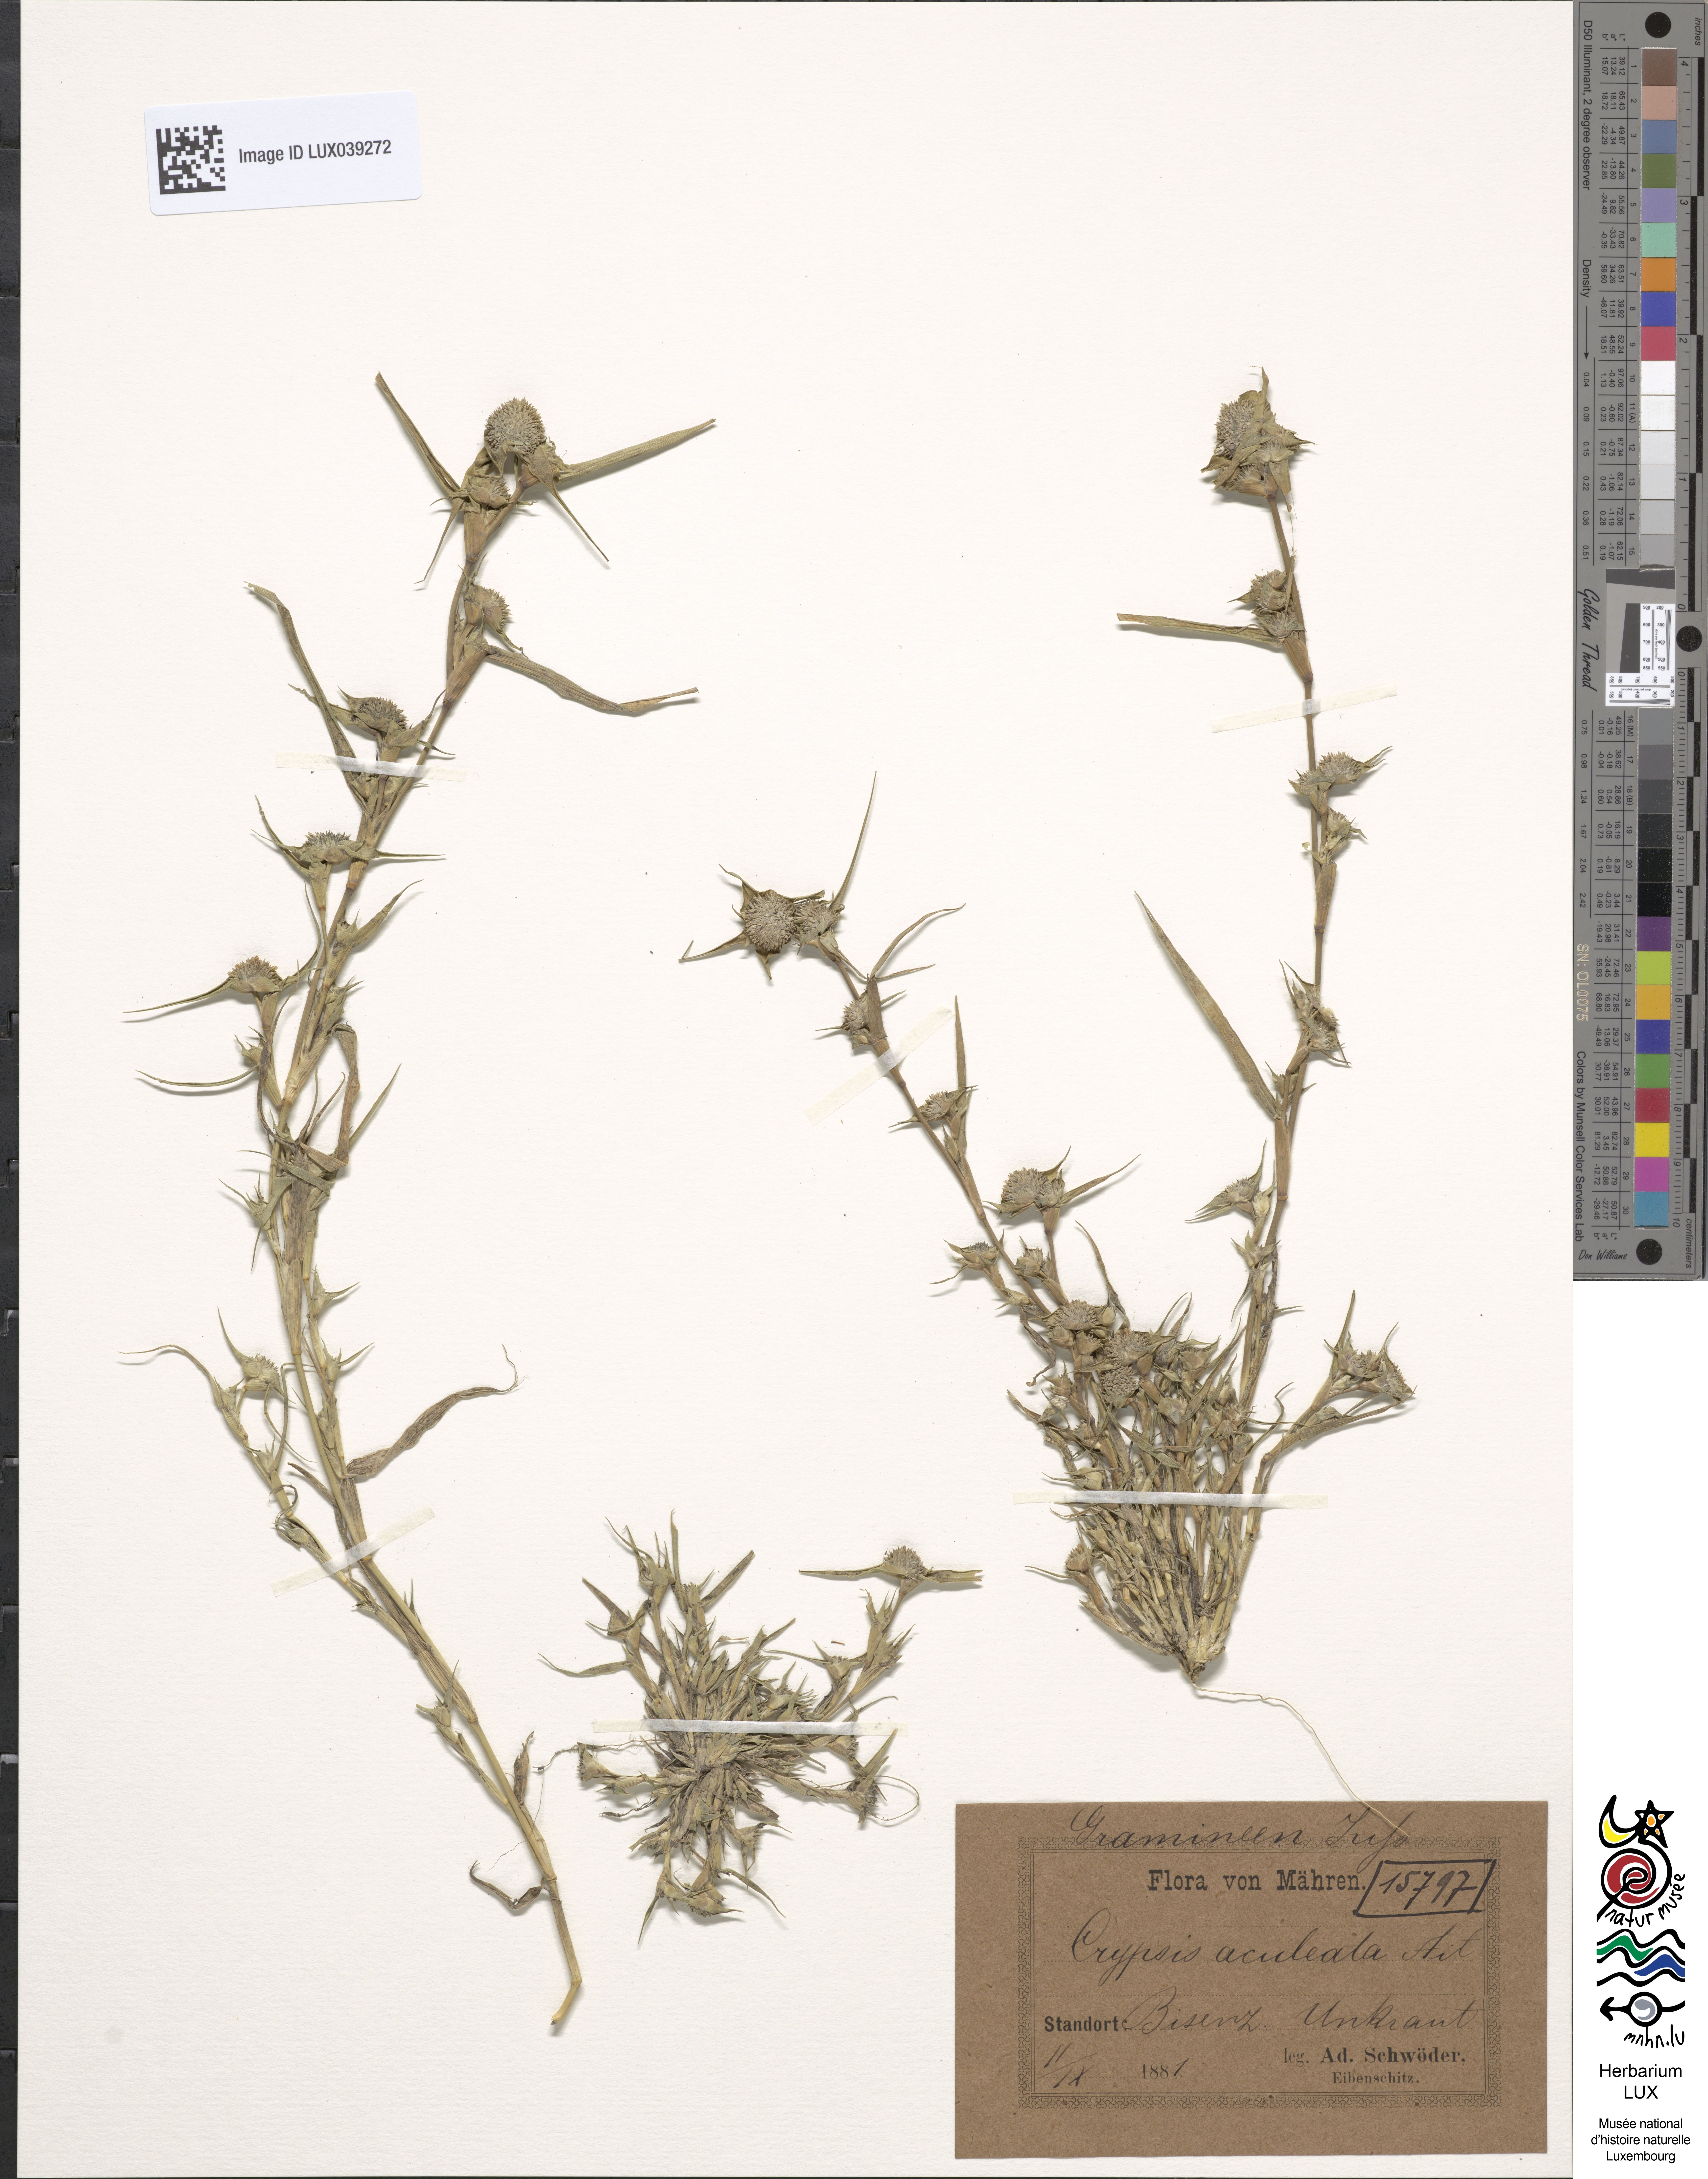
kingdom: Plantae
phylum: Tracheophyta
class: Liliopsida
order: Poales
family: Poaceae
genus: Sporobolus
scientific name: Sporobolus aculeatus
